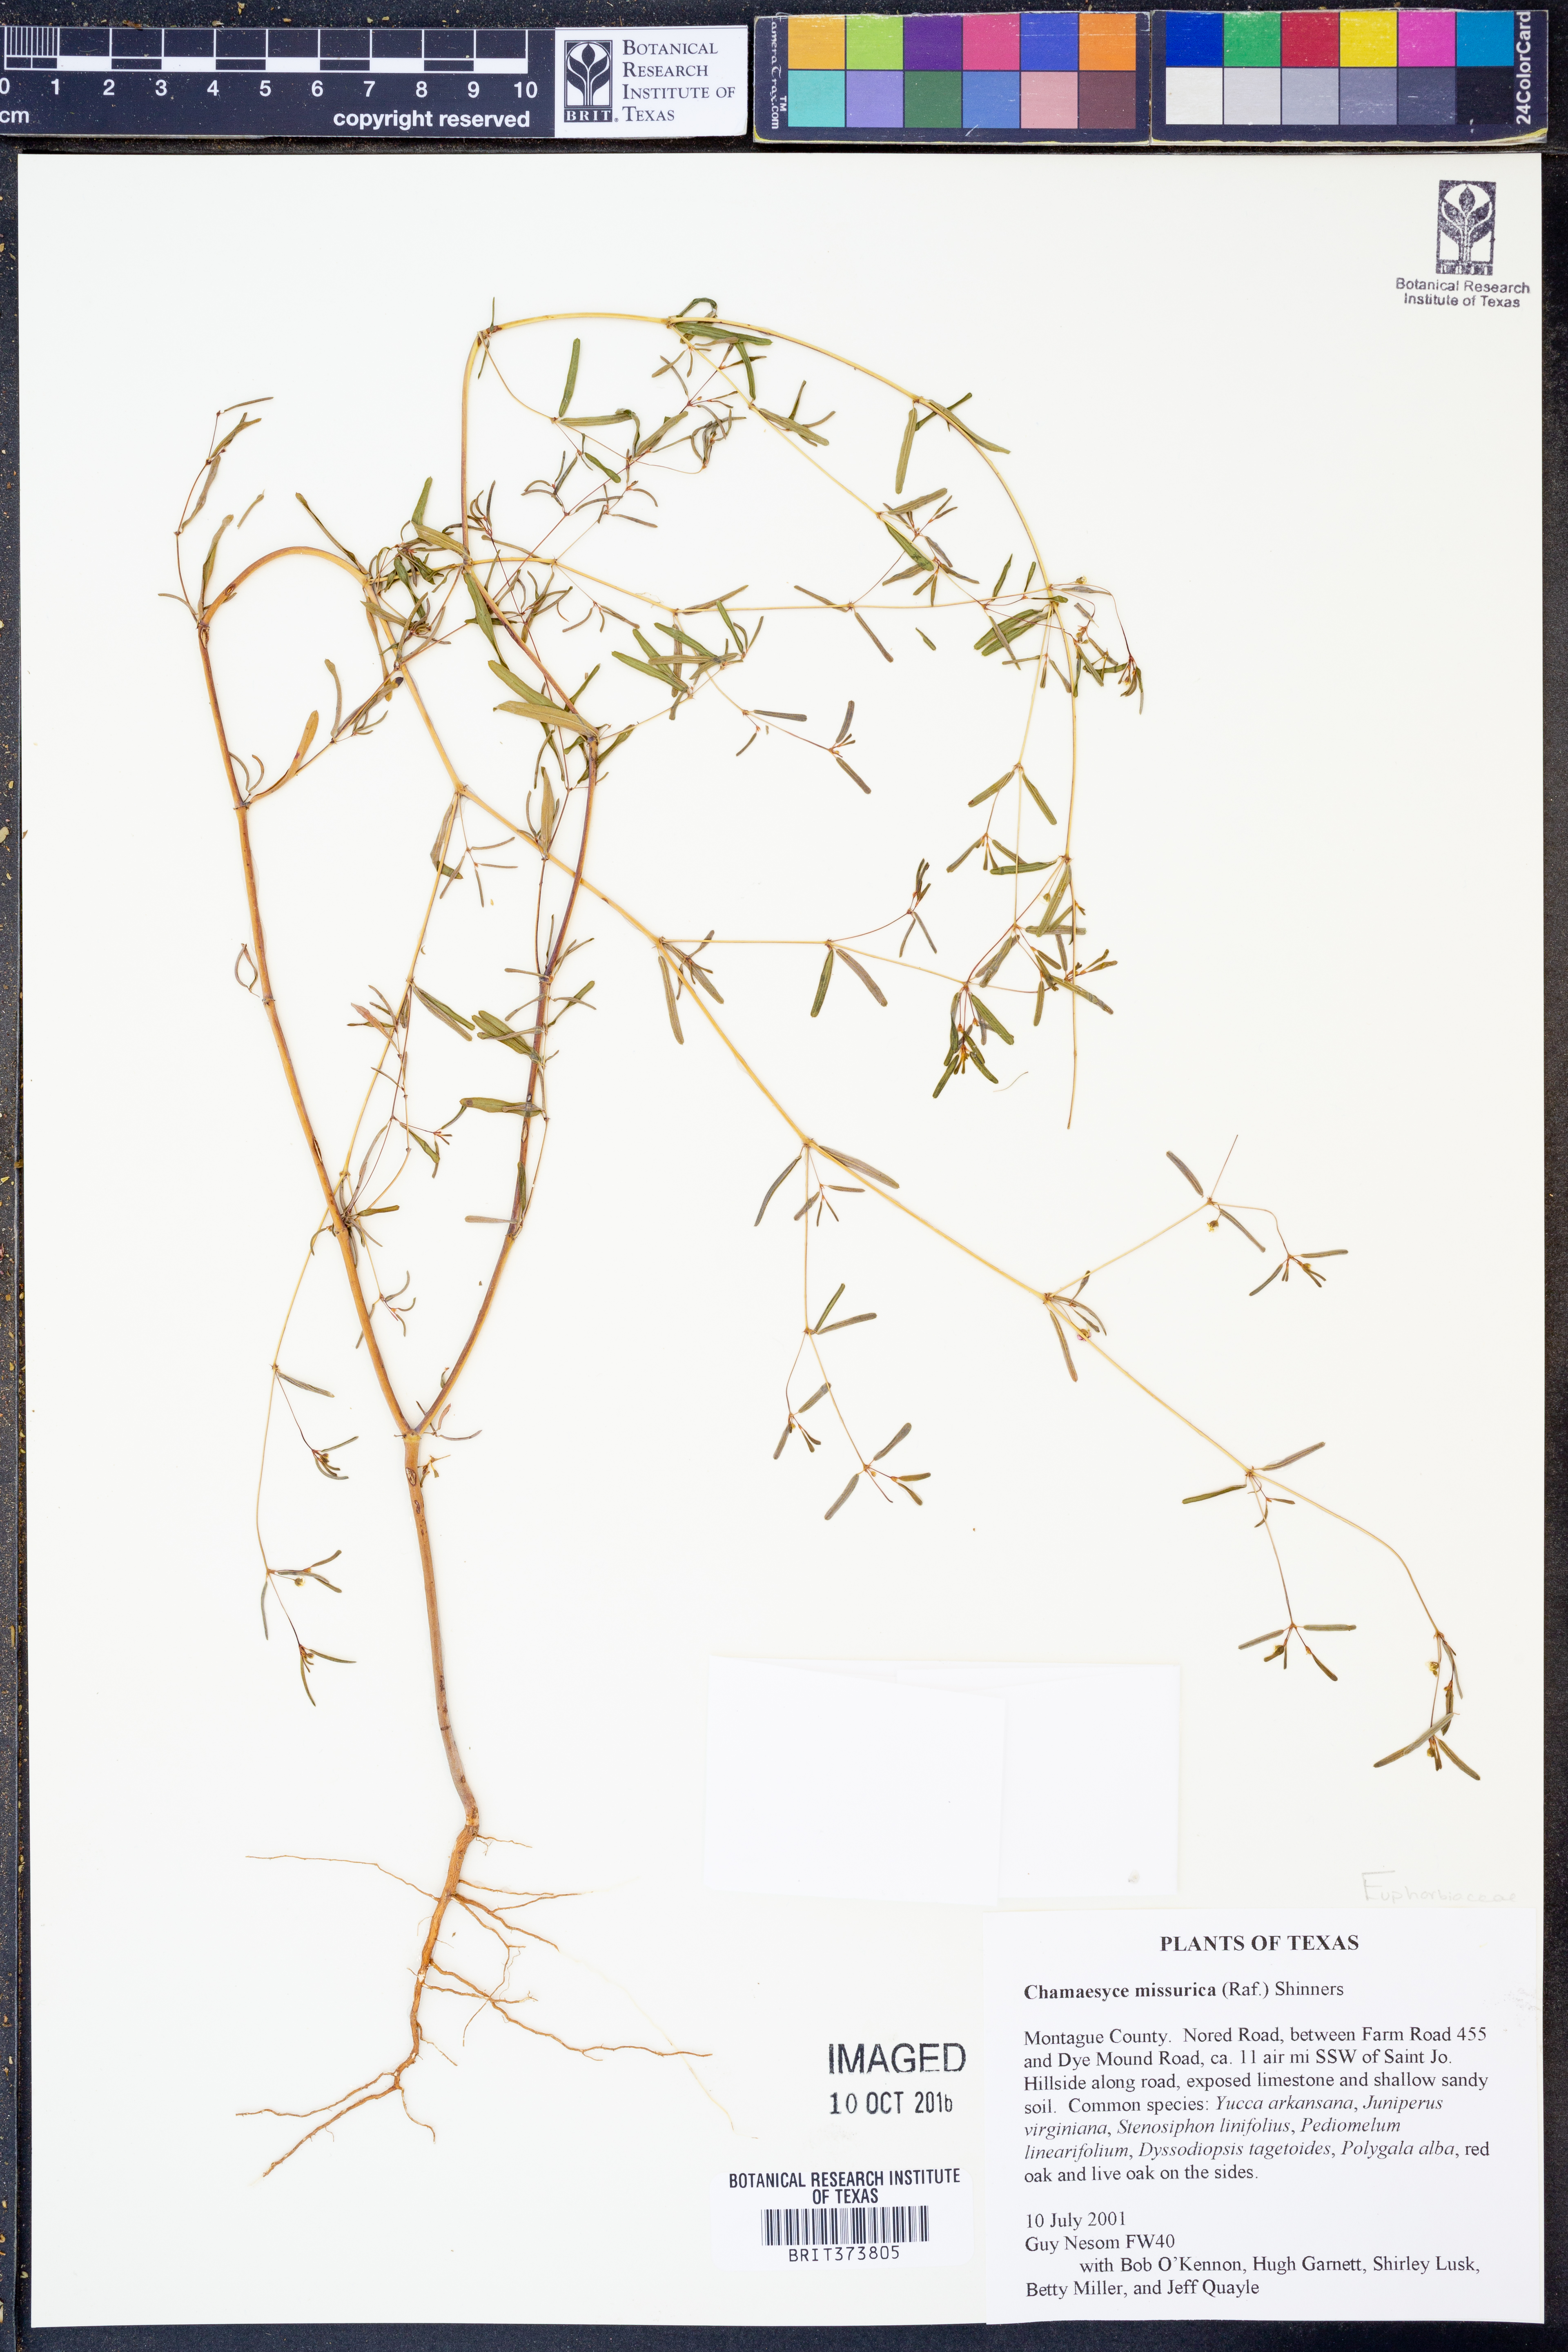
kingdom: Plantae
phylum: Tracheophyta
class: Magnoliopsida
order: Malpighiales
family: Euphorbiaceae
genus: Euphorbia
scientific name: Euphorbia missurica
